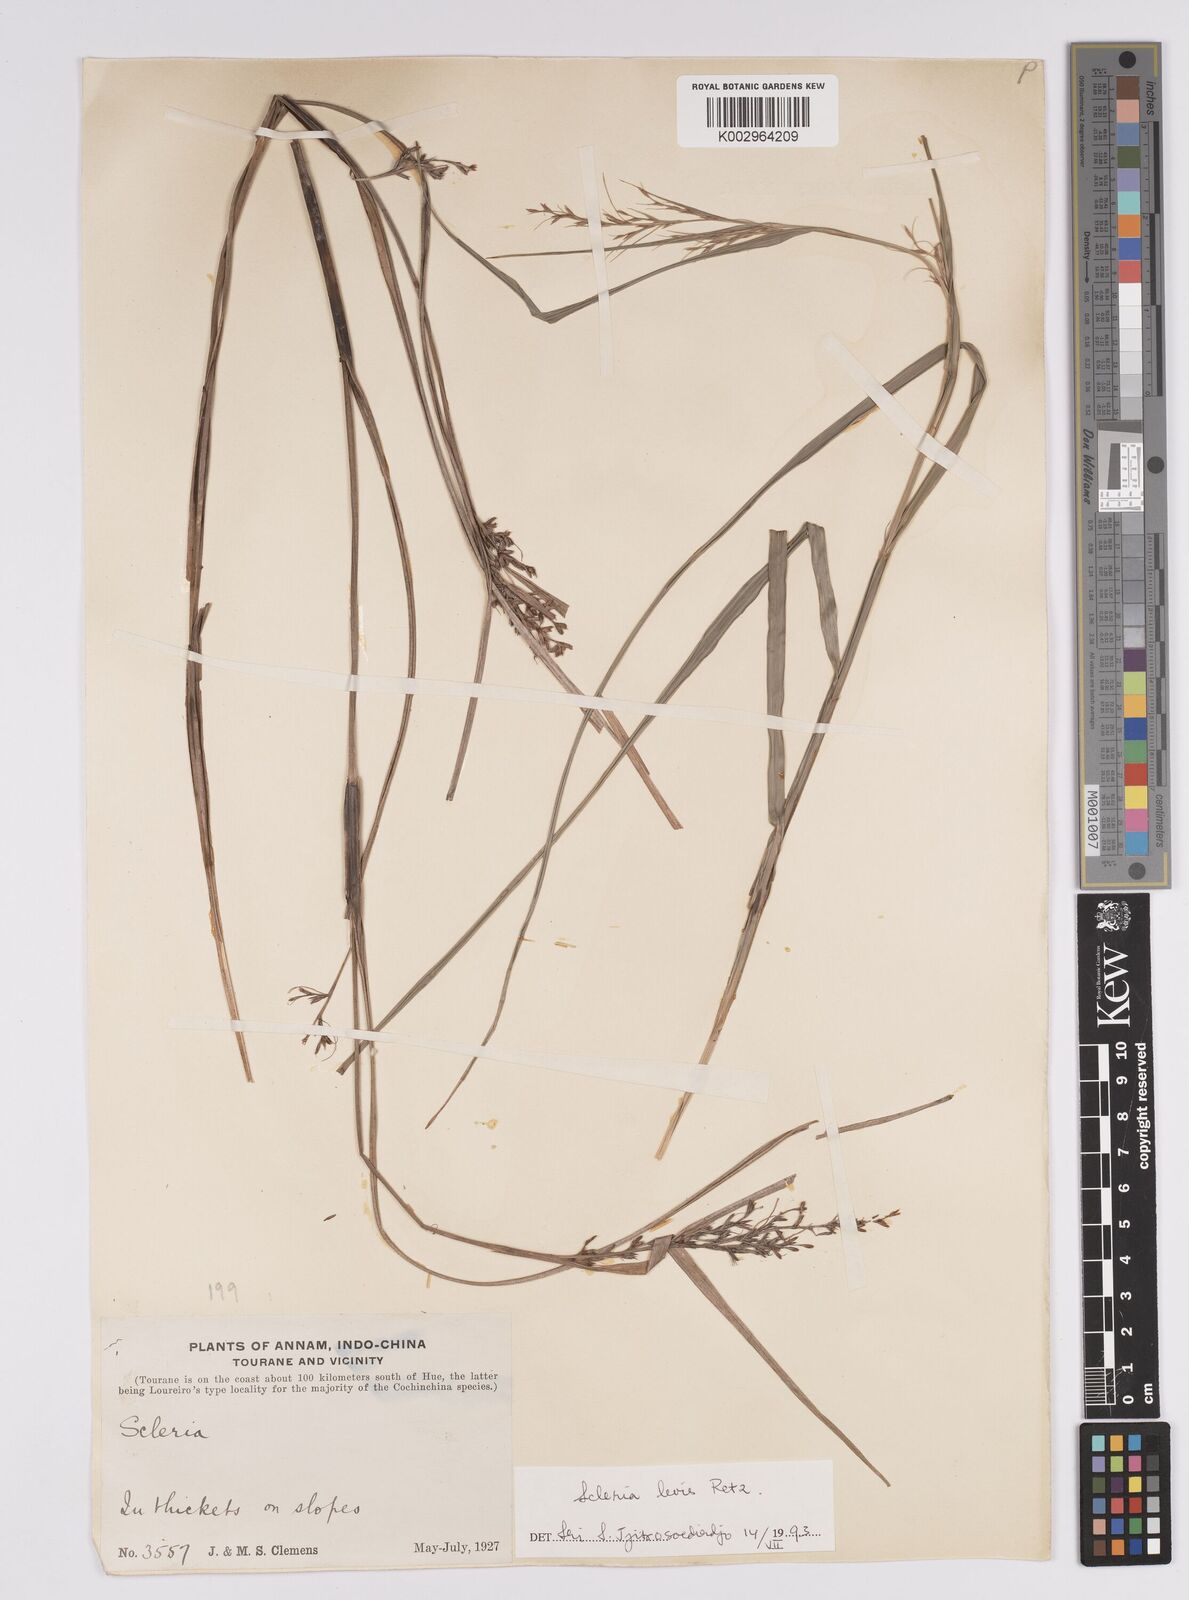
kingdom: Plantae
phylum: Tracheophyta
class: Liliopsida
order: Poales
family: Cyperaceae
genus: Scleria
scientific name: Scleria levis
